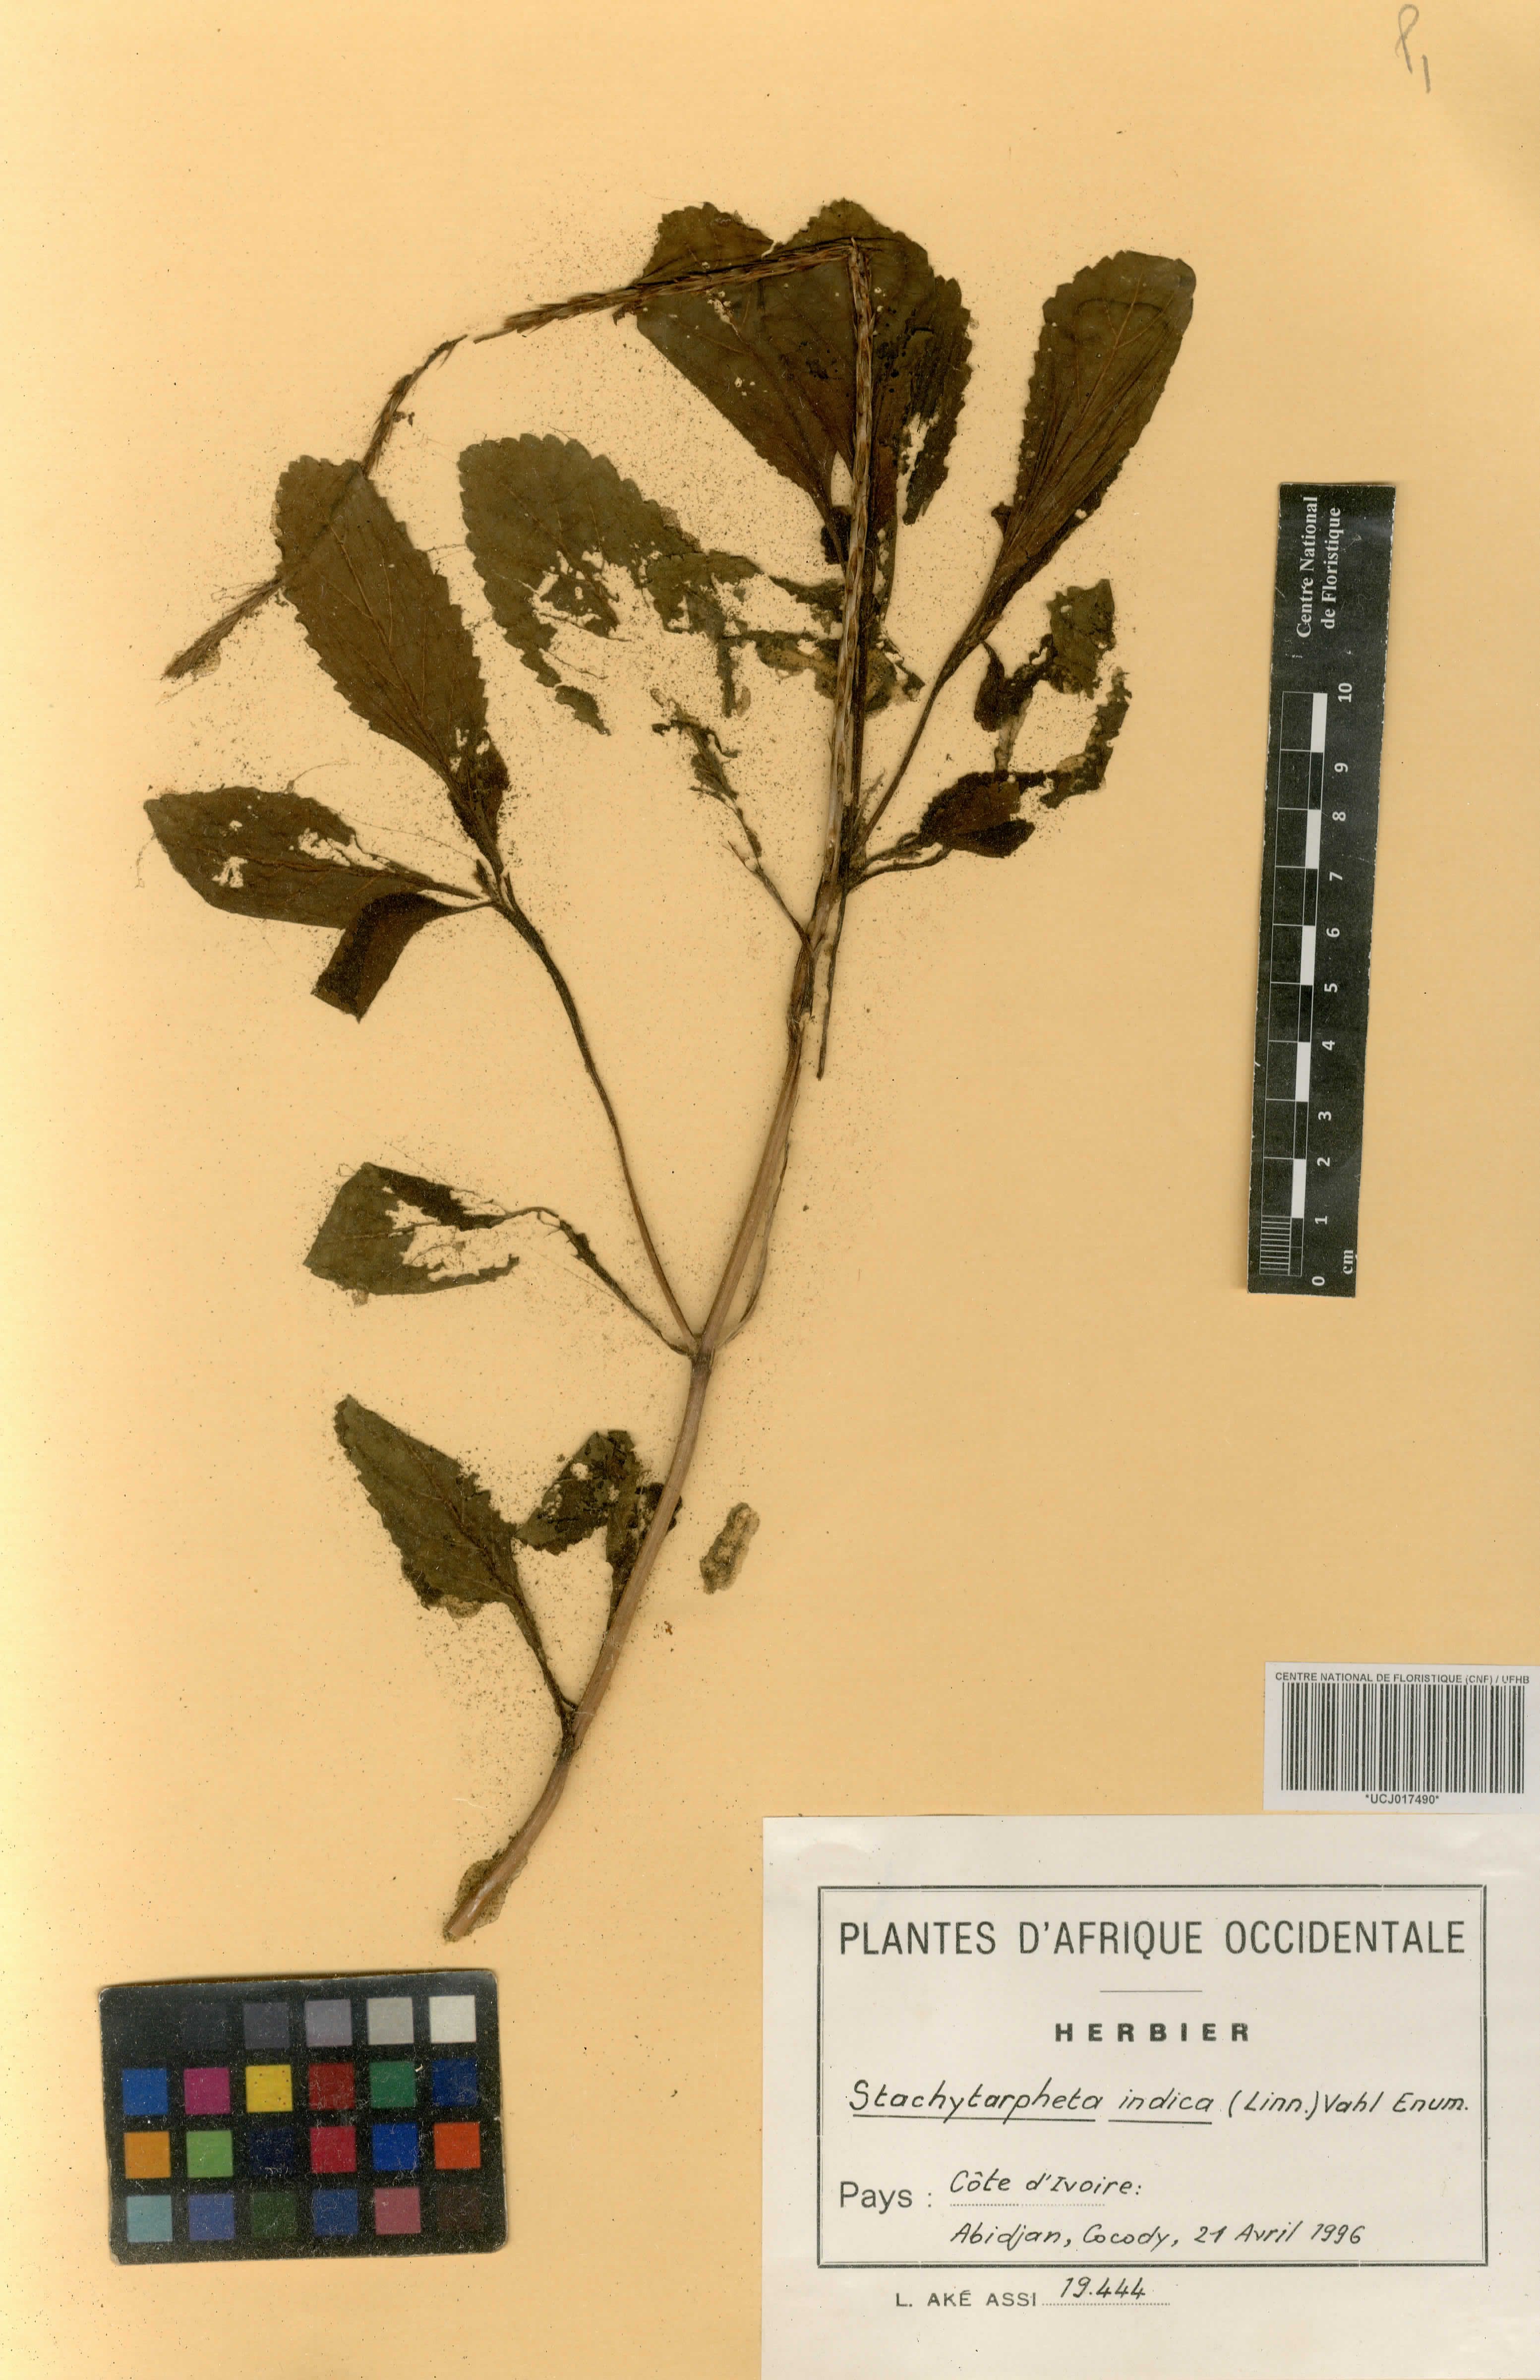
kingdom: Plantae
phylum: Tracheophyta
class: Magnoliopsida
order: Lamiales
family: Verbenaceae
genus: Stachytarpheta
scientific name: Stachytarpheta indica
